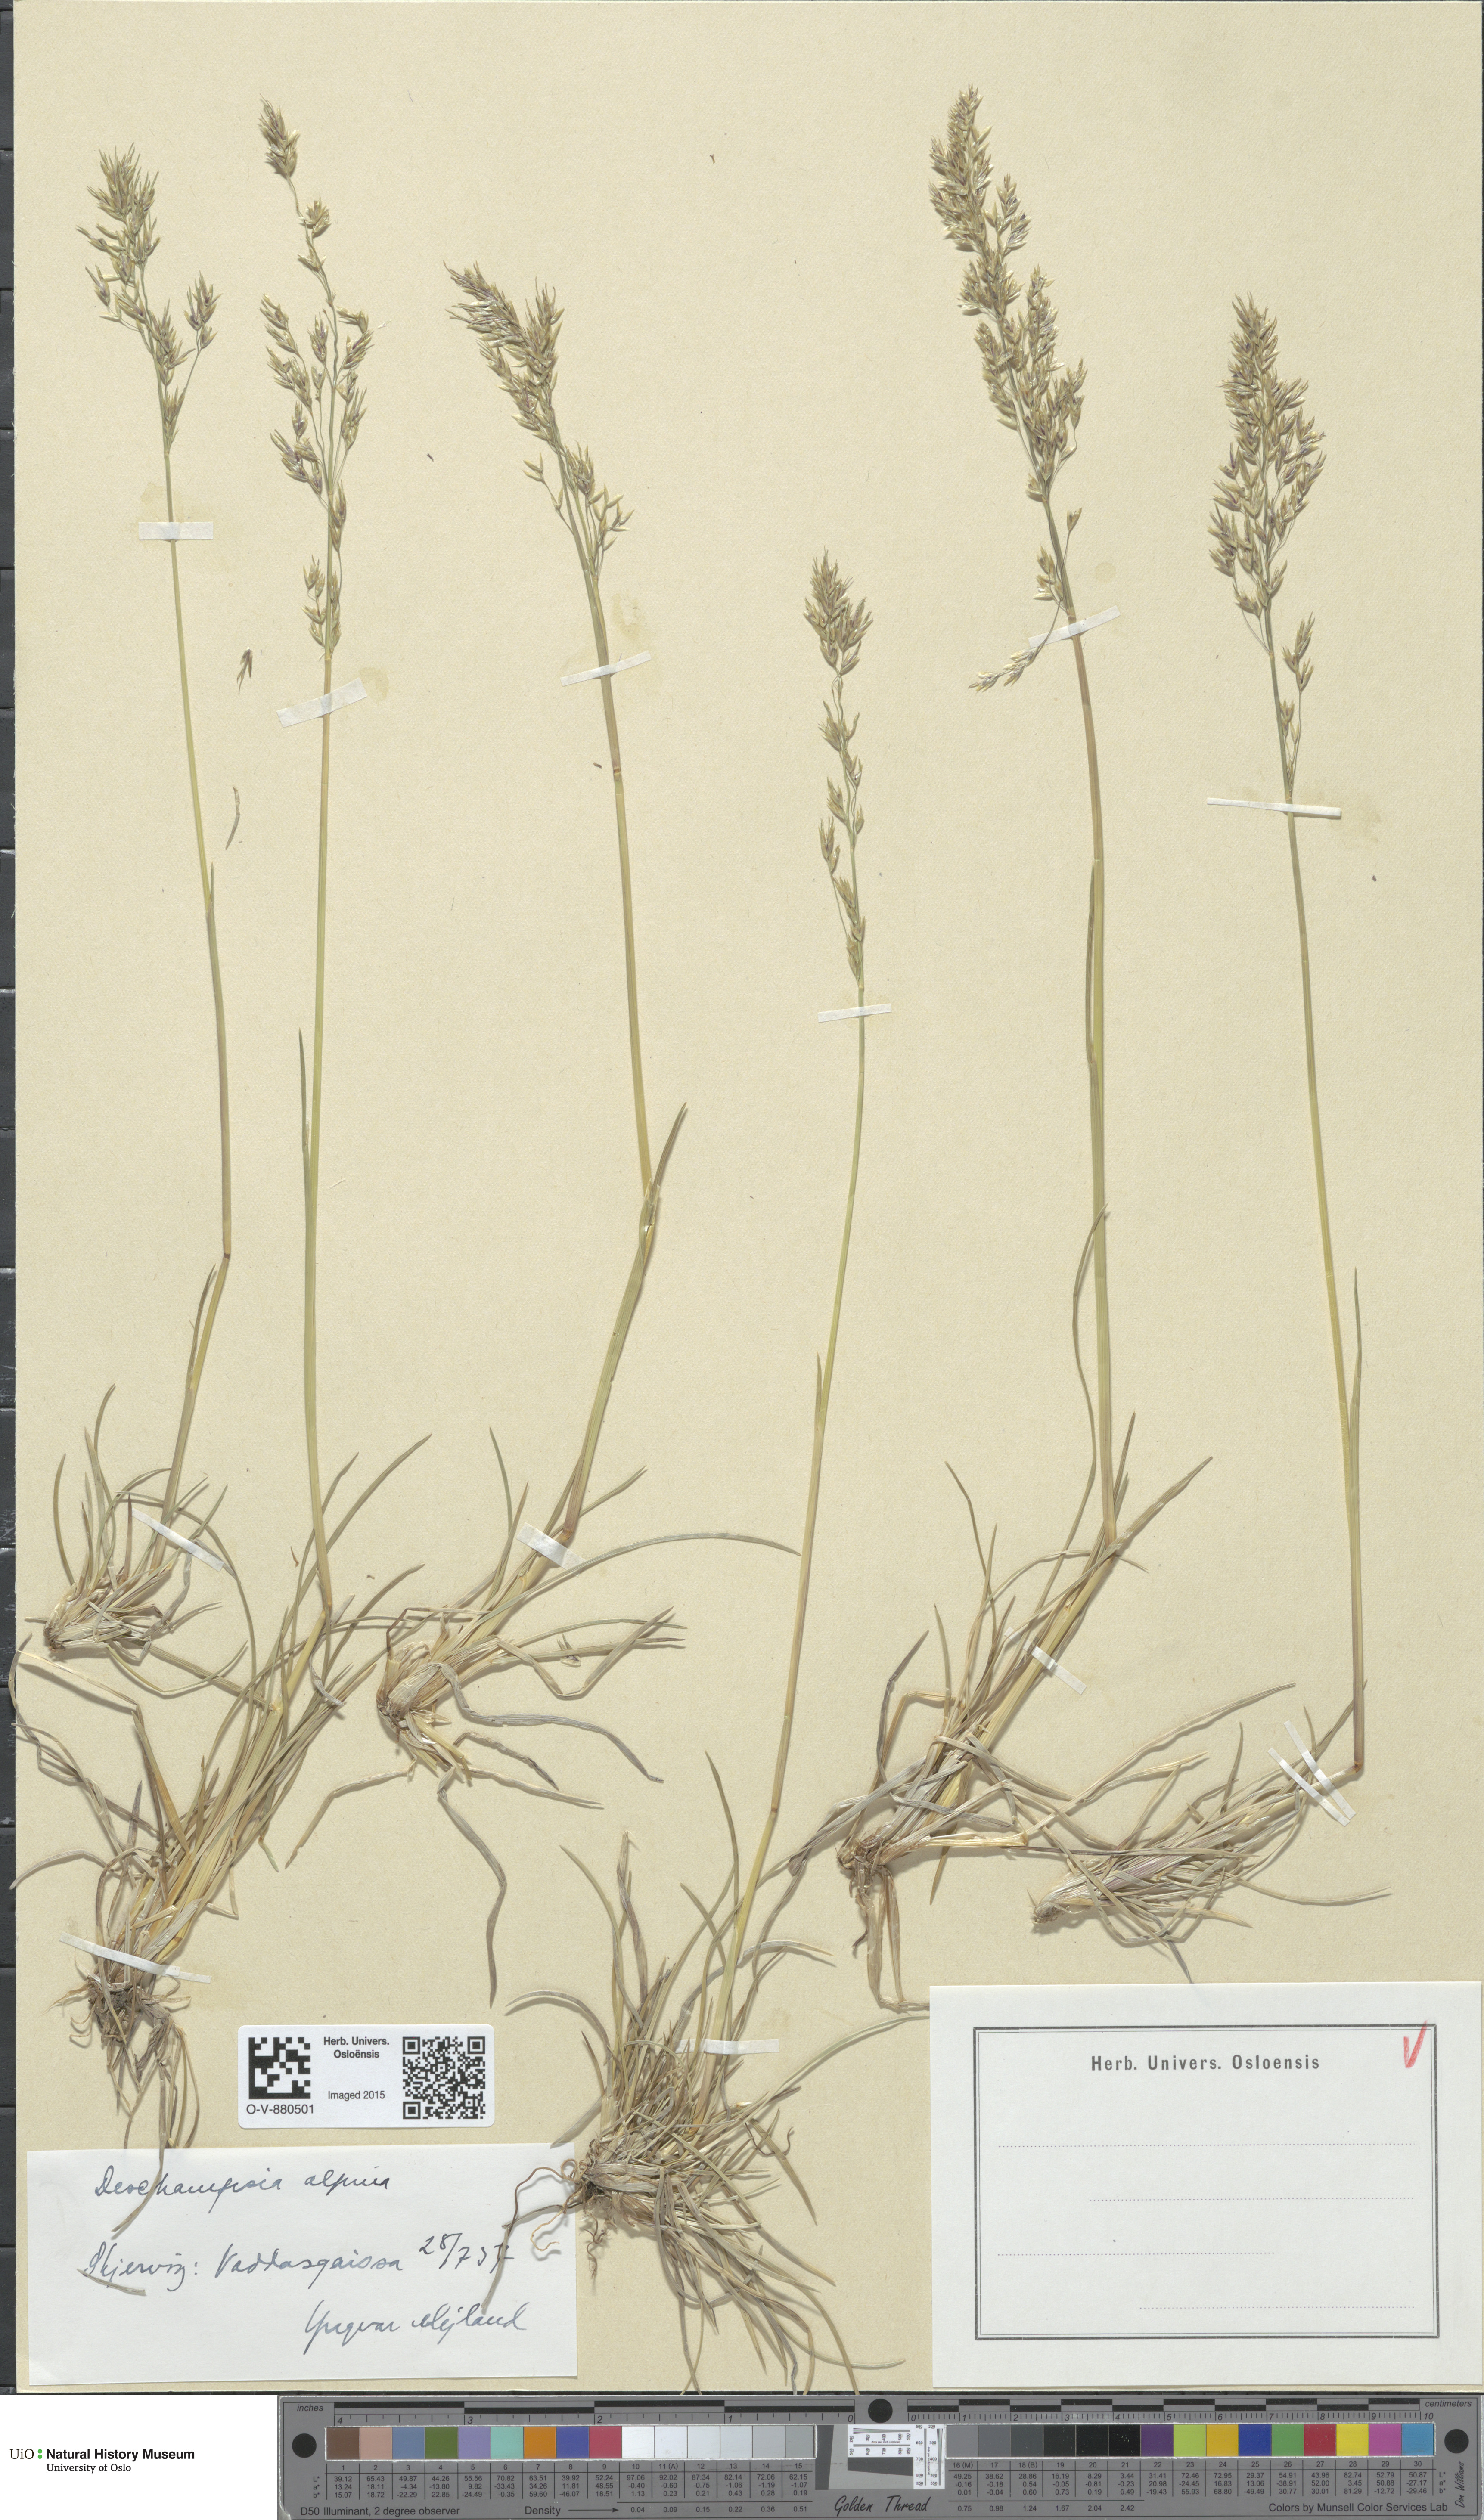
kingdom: Plantae
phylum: Tracheophyta
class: Liliopsida
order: Poales
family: Poaceae
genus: Deschampsia
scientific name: Deschampsia cespitosa
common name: Tufted hair-grass
